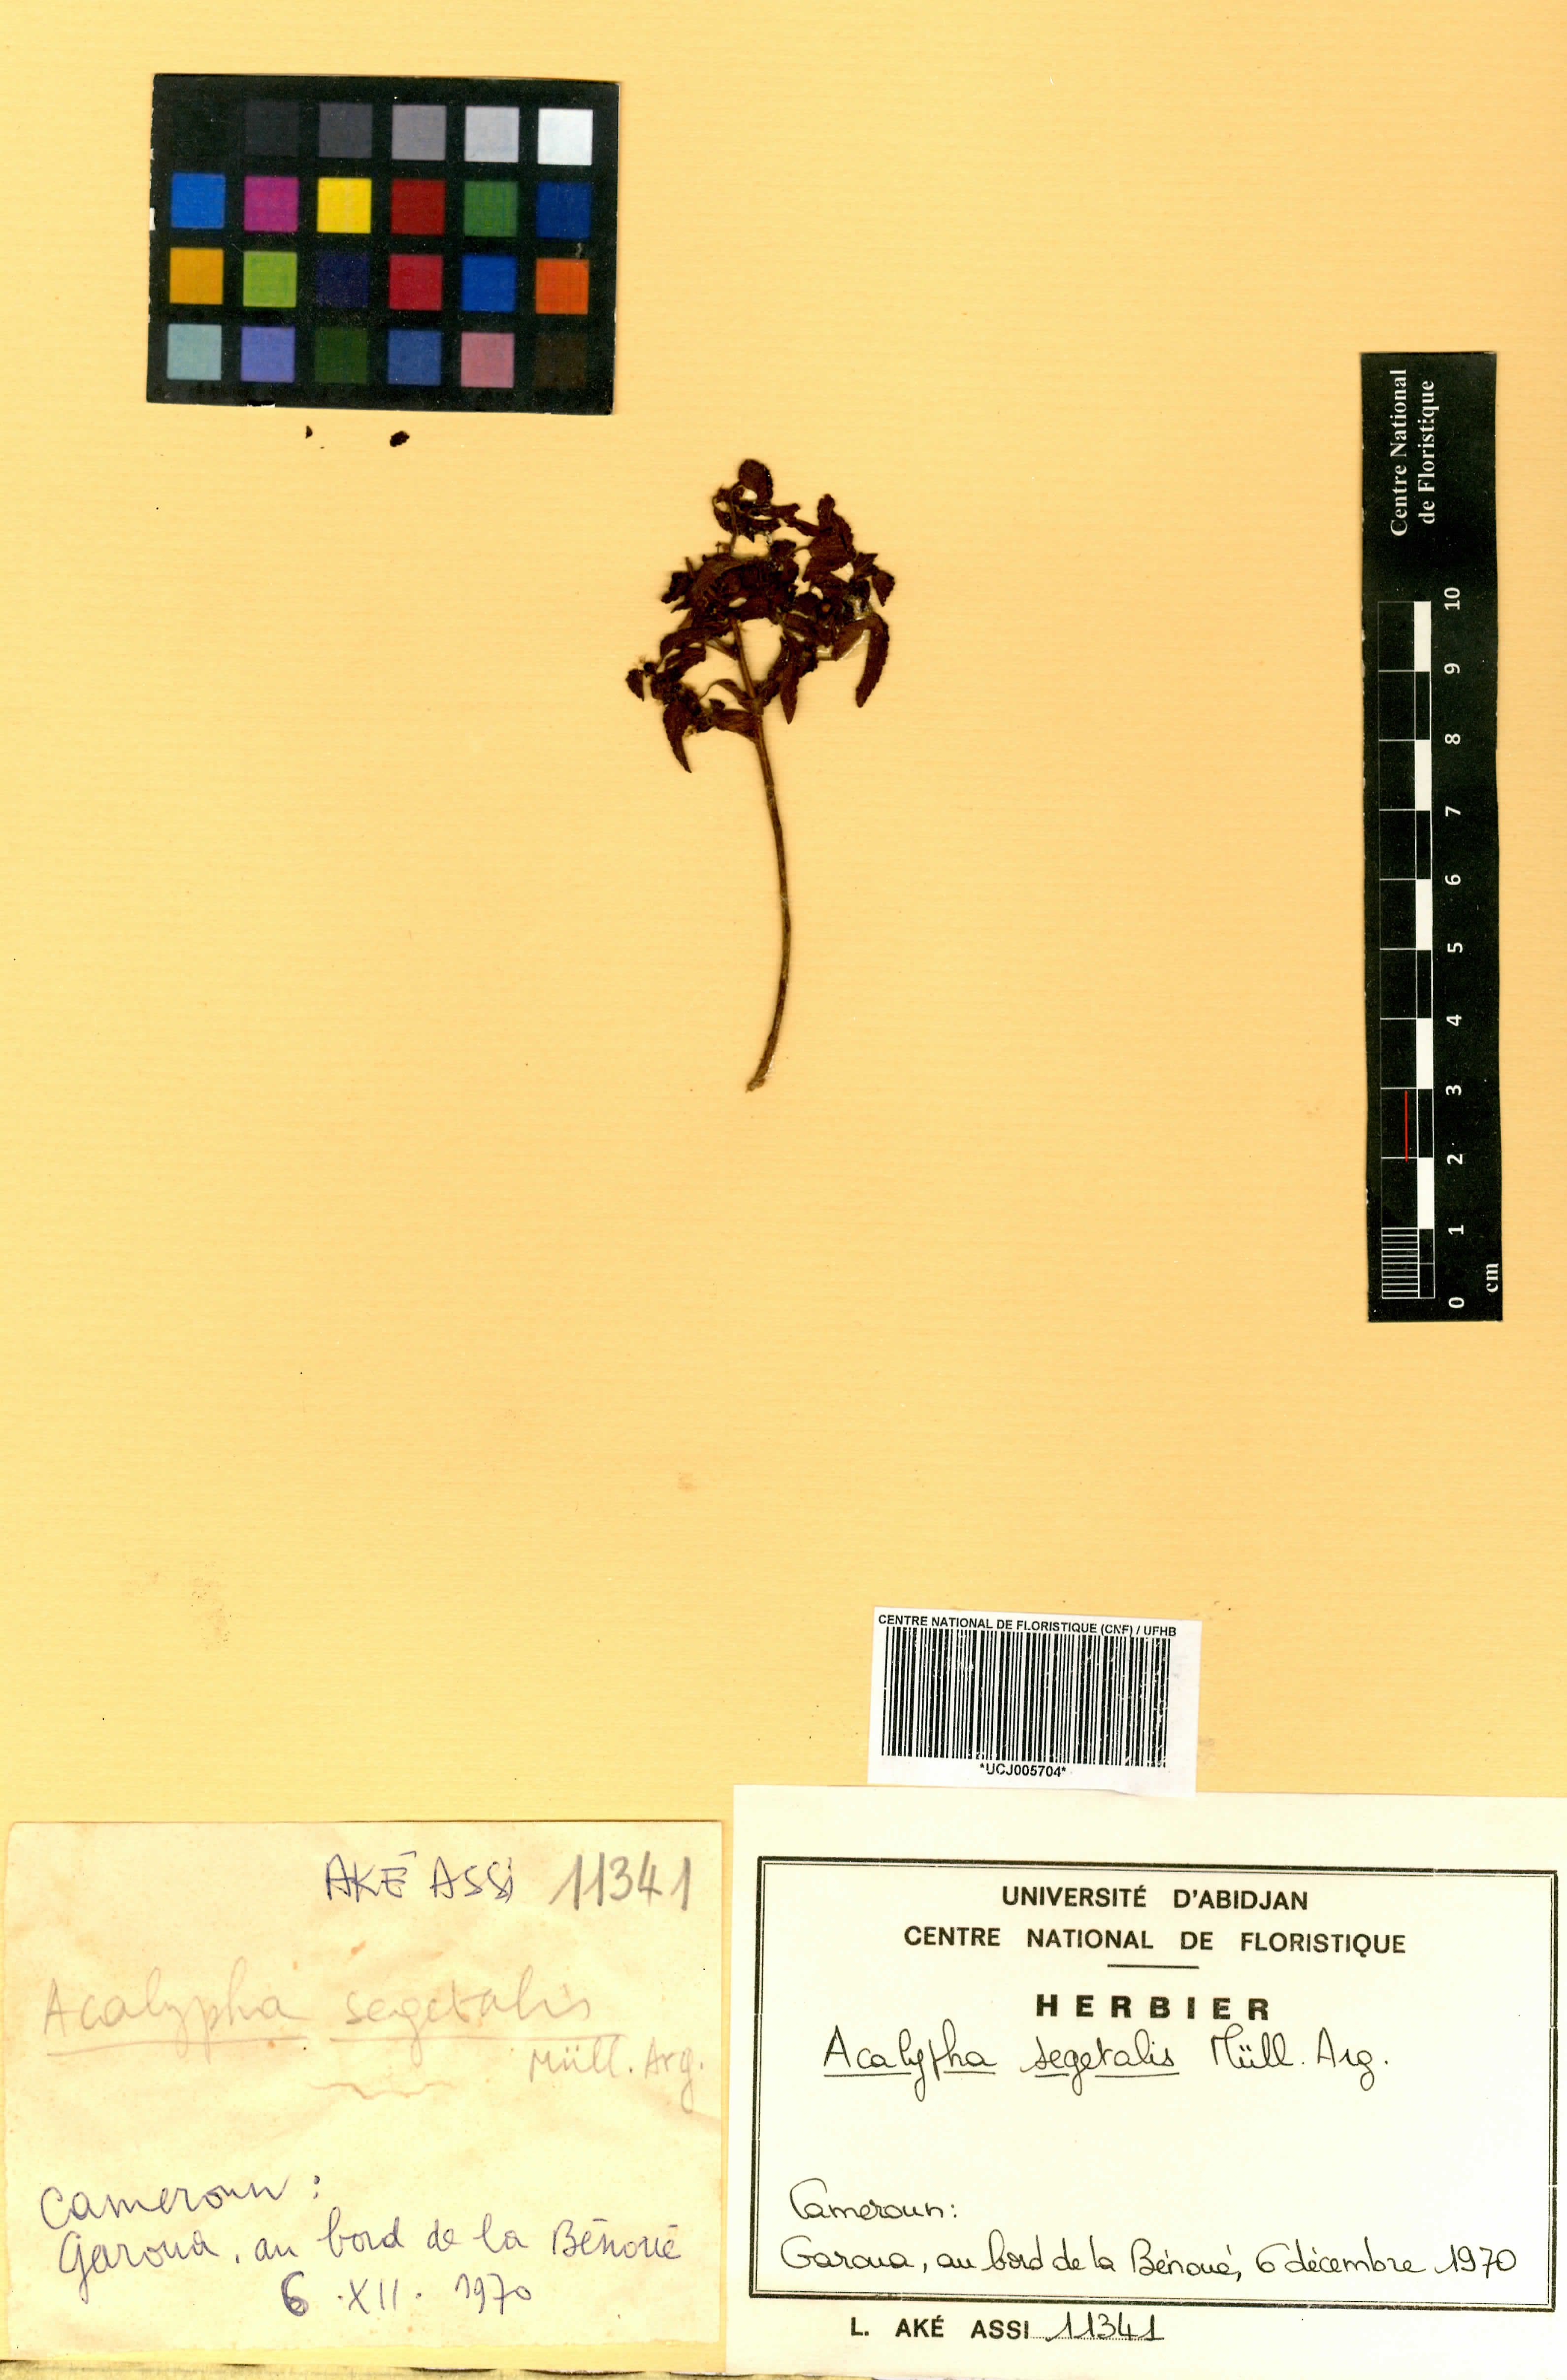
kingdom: Plantae
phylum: Tracheophyta
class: Magnoliopsida
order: Malpighiales
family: Euphorbiaceae
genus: Acalypha
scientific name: Acalypha segetalis
